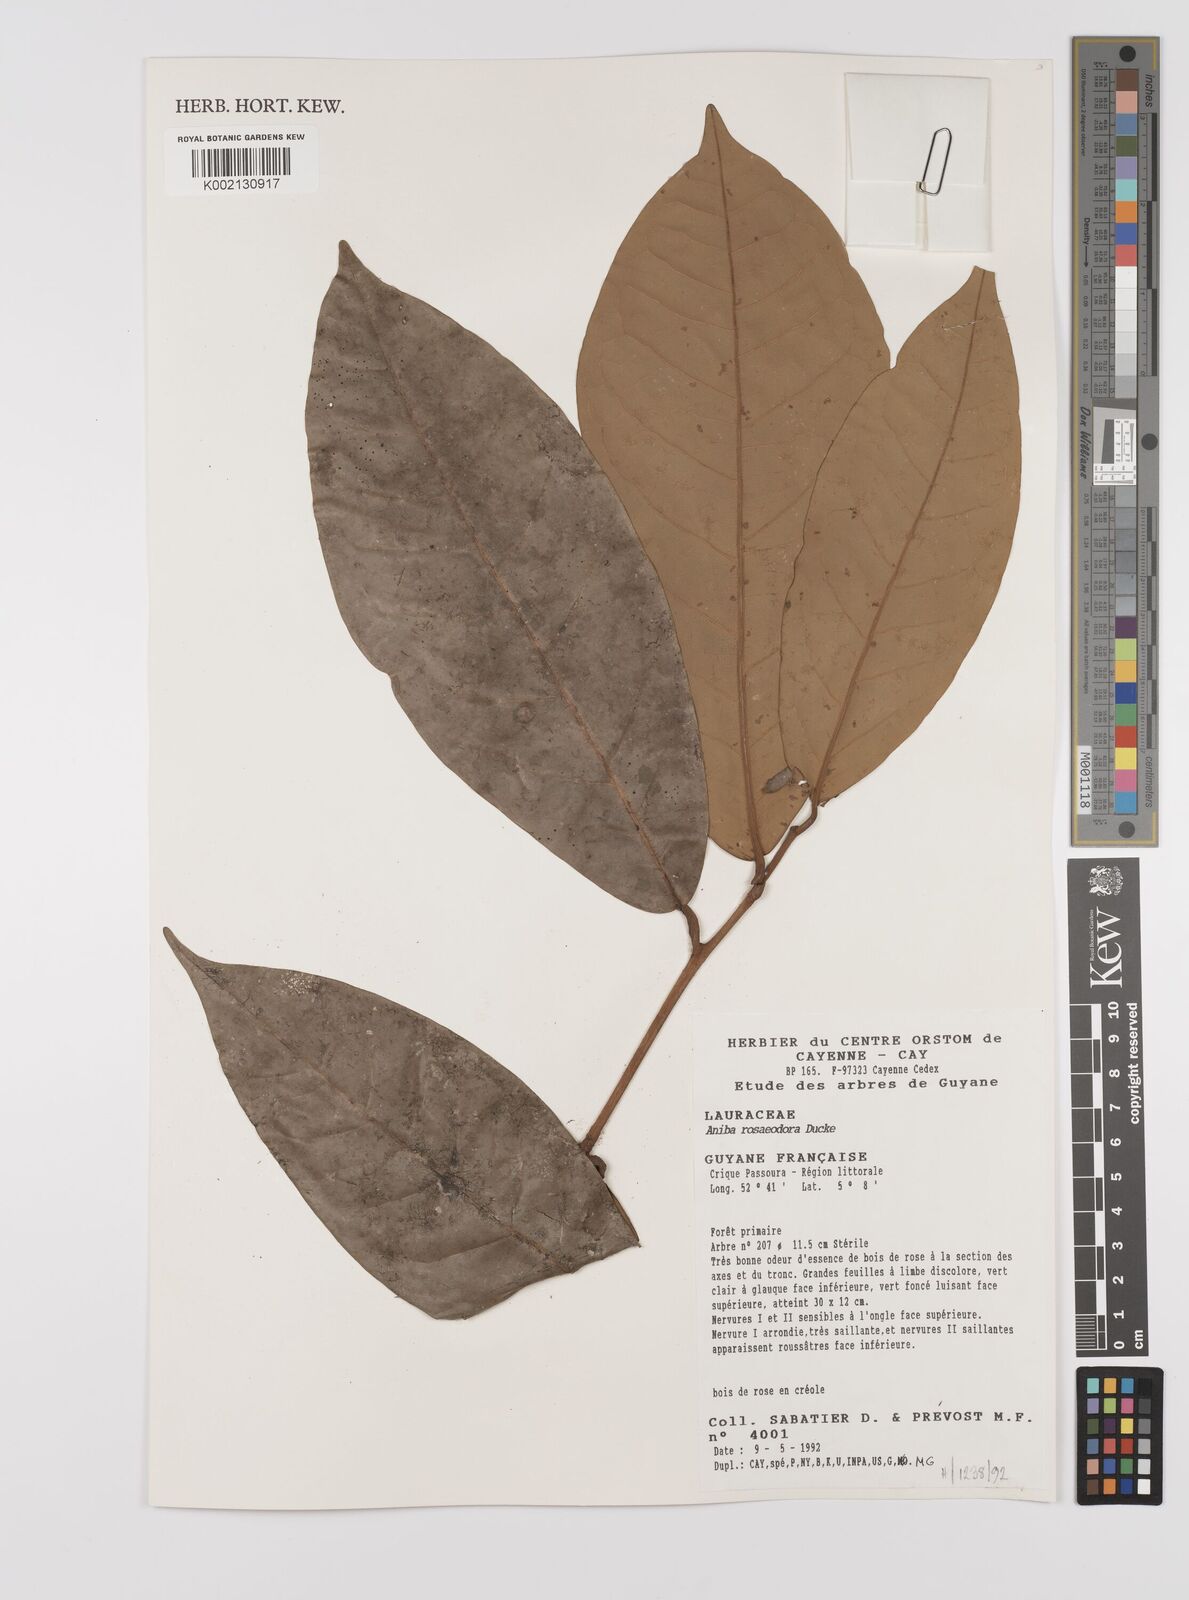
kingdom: Plantae
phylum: Tracheophyta
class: Magnoliopsida
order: Laurales
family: Lauraceae
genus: Aniba
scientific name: Aniba rosodora
